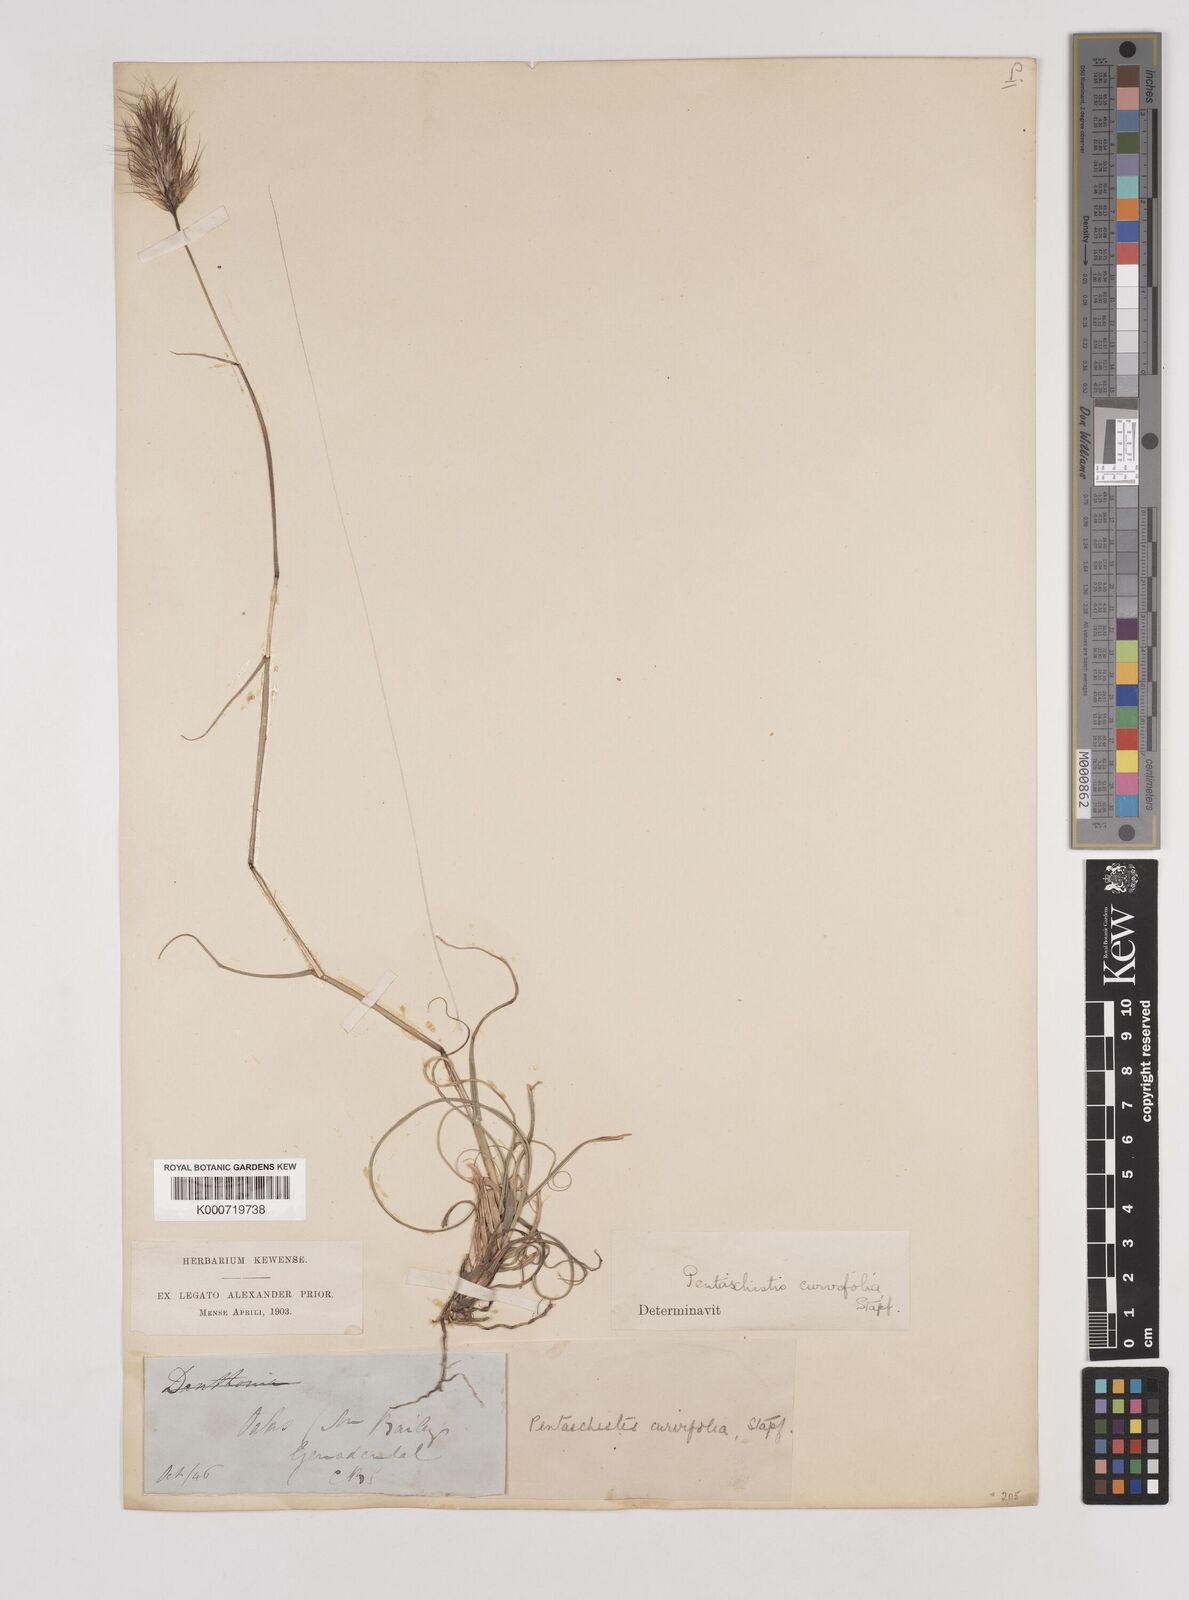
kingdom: Plantae
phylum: Tracheophyta
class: Liliopsida
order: Poales
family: Poaceae
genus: Pentameris
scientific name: Pentameris curvifolia
